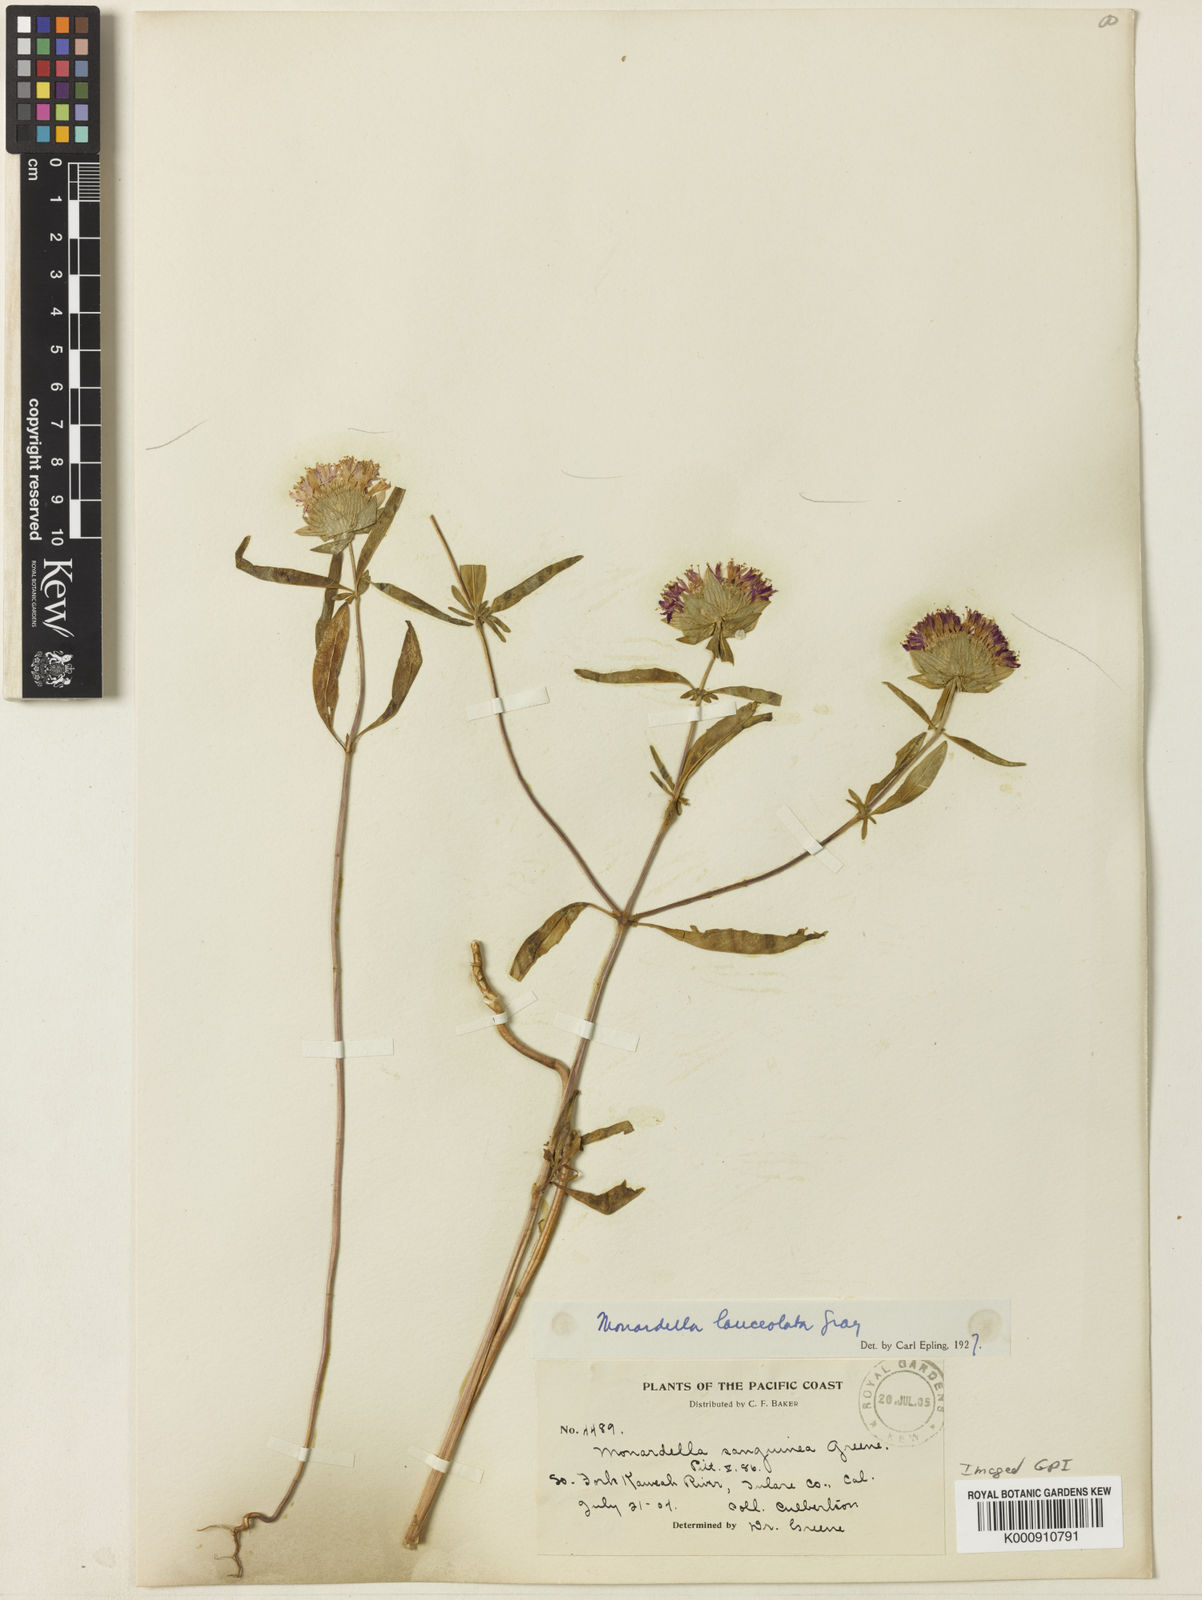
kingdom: Plantae
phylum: Tracheophyta
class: Magnoliopsida
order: Lamiales
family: Lamiaceae
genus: Monardella
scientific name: Monardella breweri
